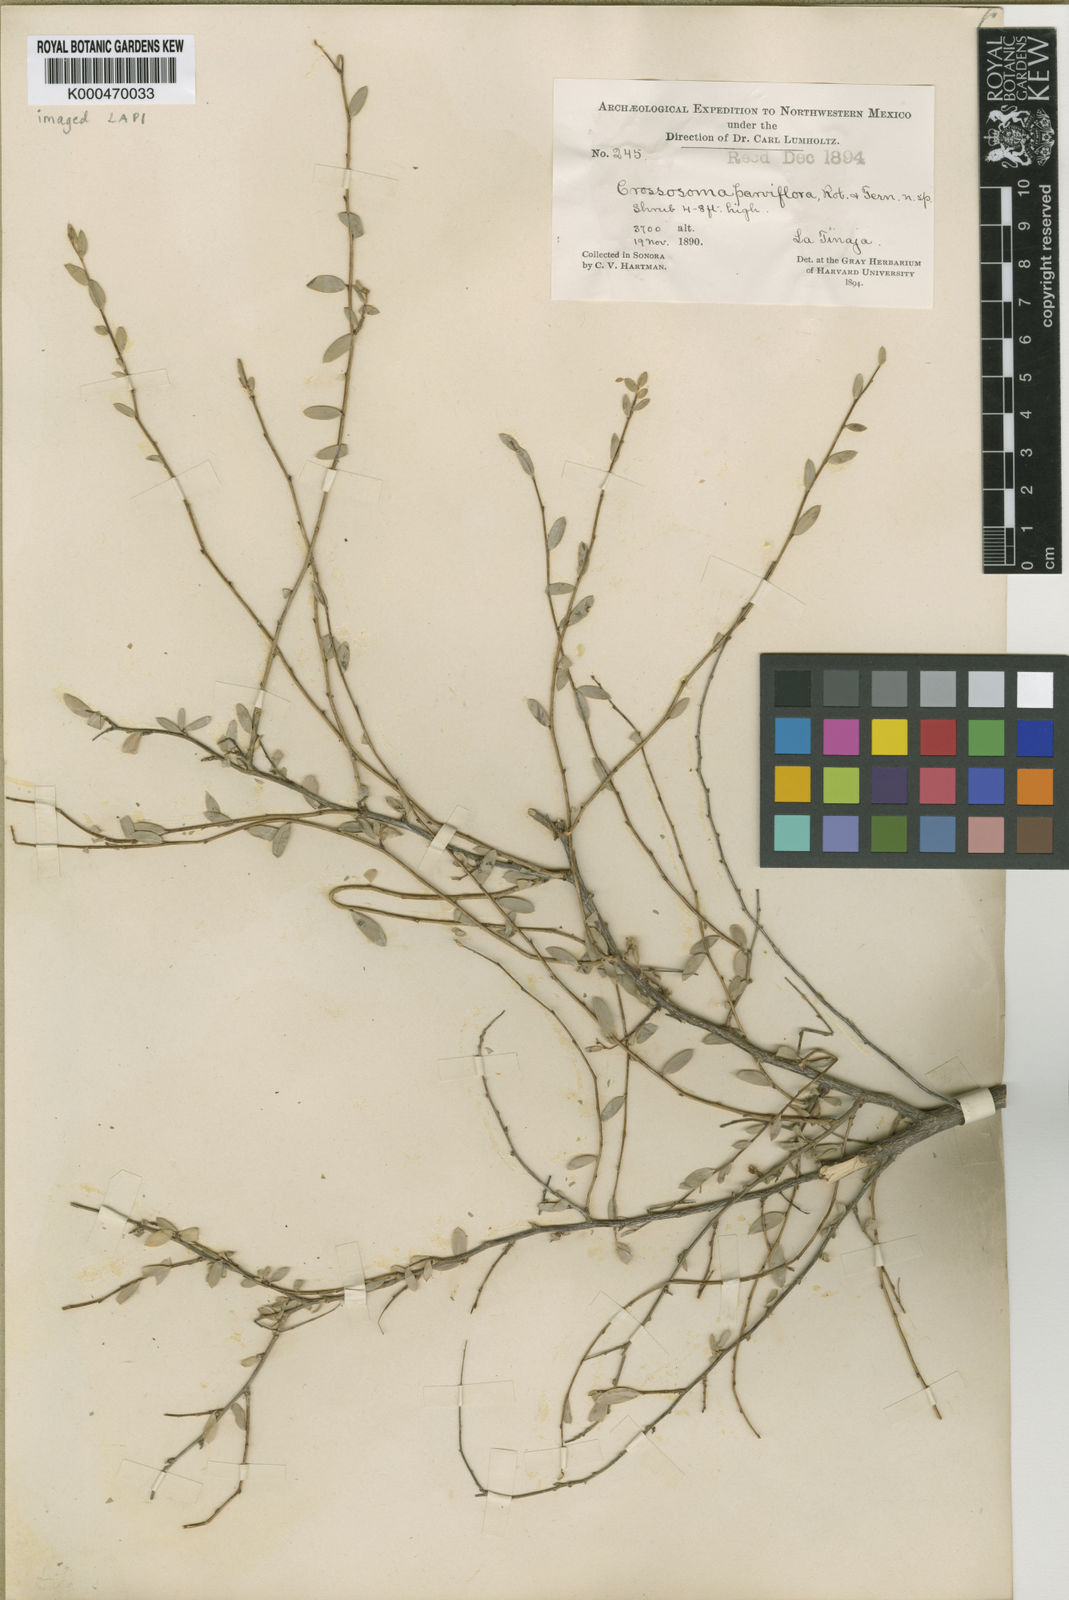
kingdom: Plantae
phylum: Tracheophyta
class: Magnoliopsida
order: Crossosomatales
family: Crossosomataceae
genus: Crossosoma
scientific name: Crossosoma bigelovii
